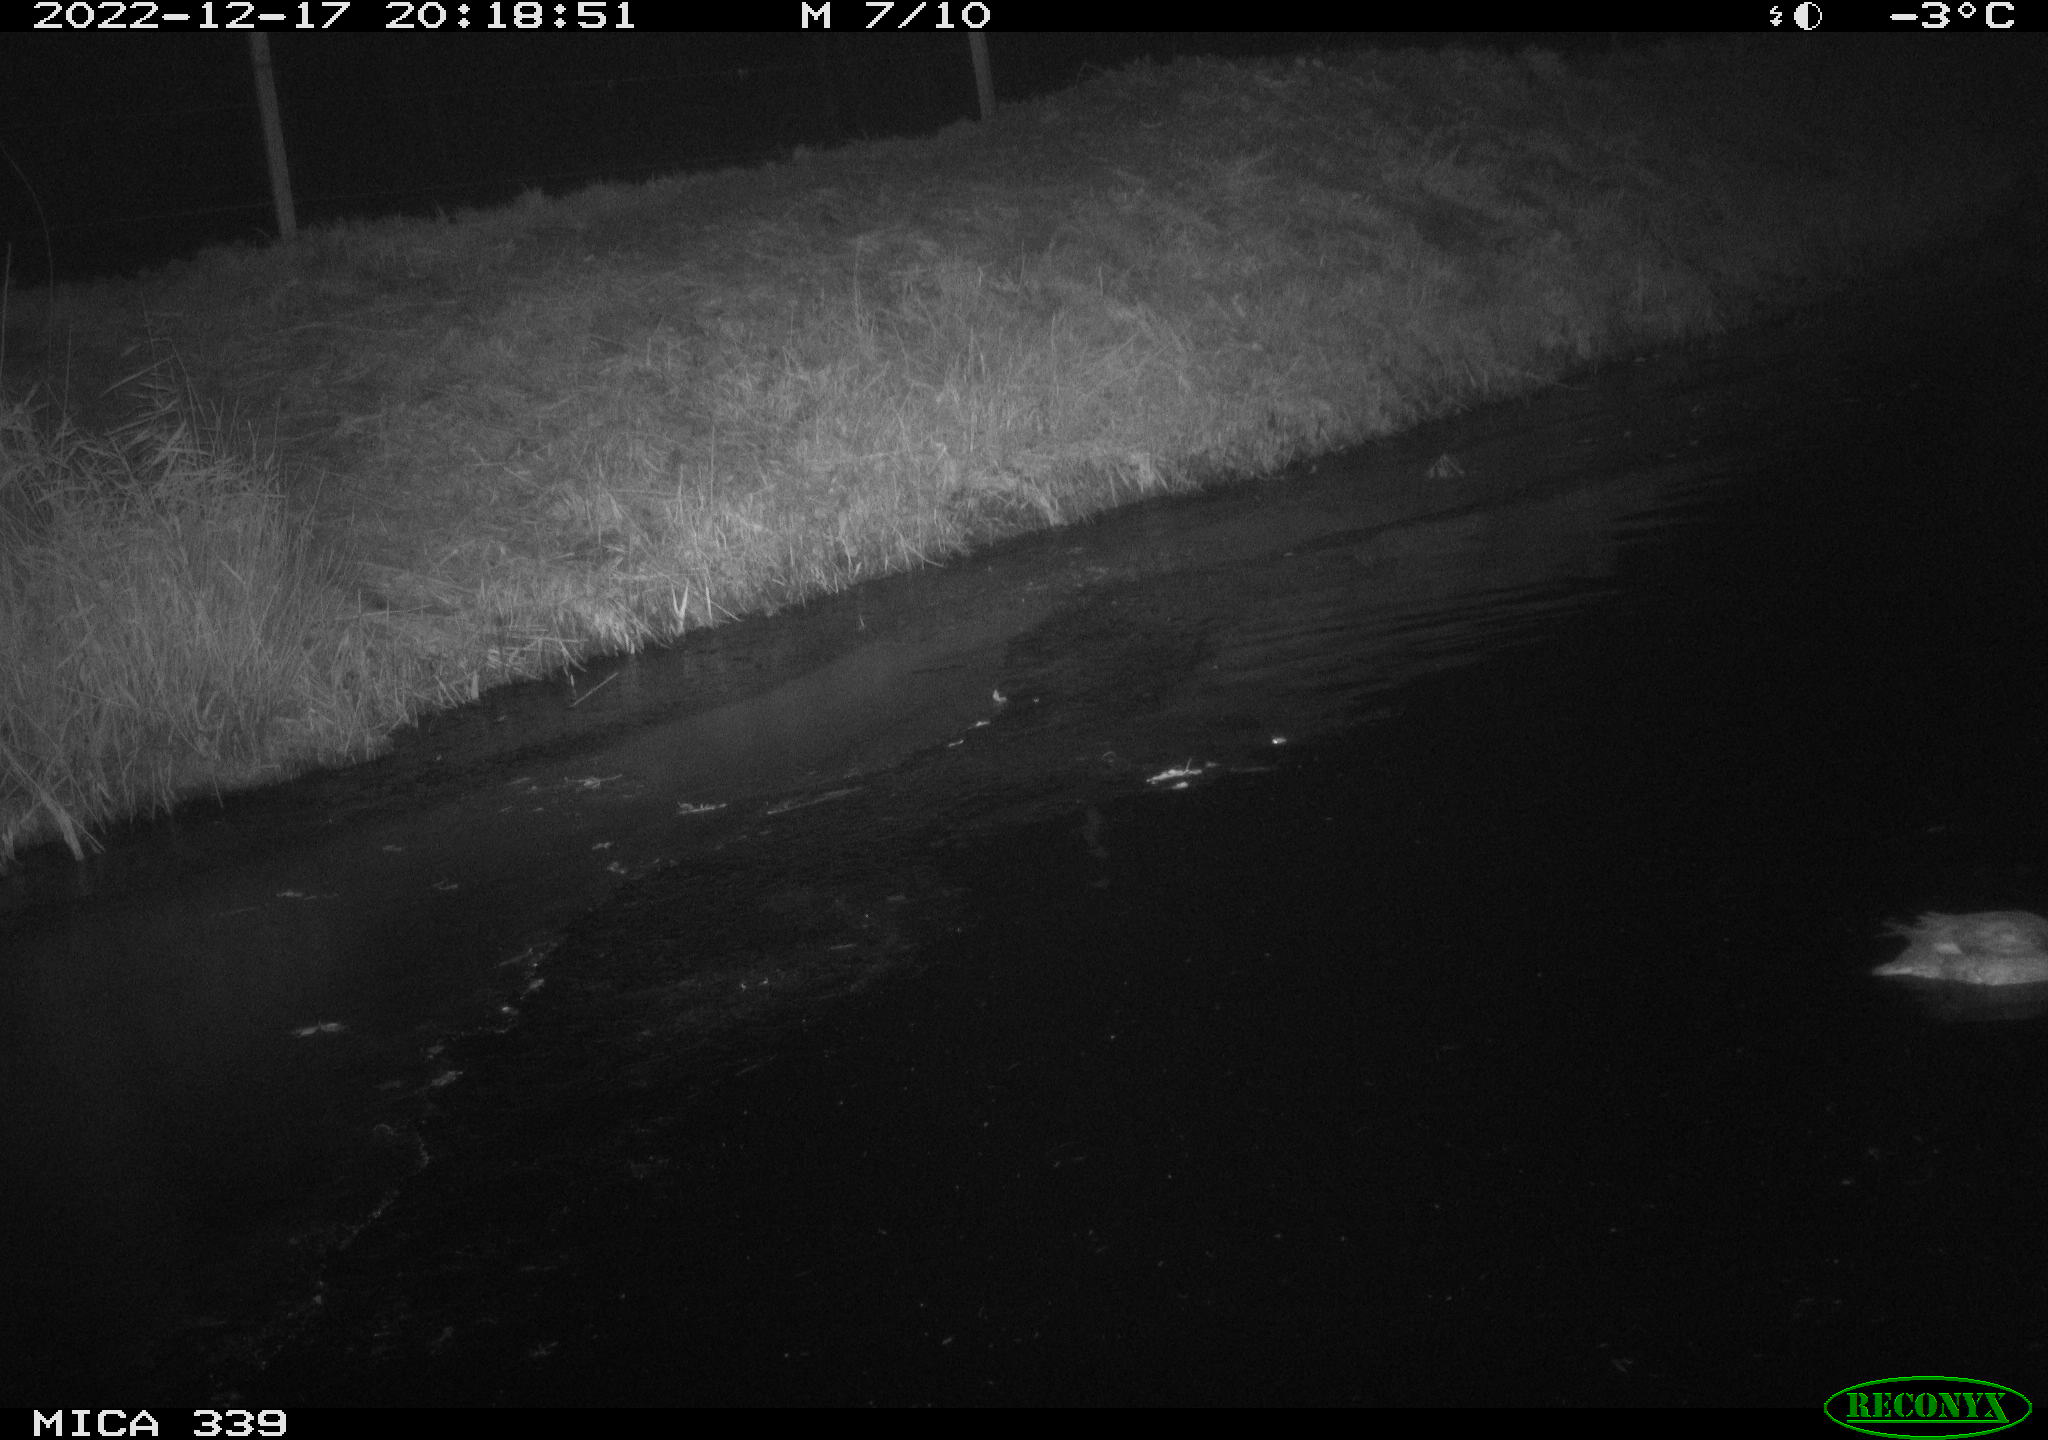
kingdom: Animalia
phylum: Chordata
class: Aves
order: Anseriformes
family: Anatidae
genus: Anas
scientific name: Anas
